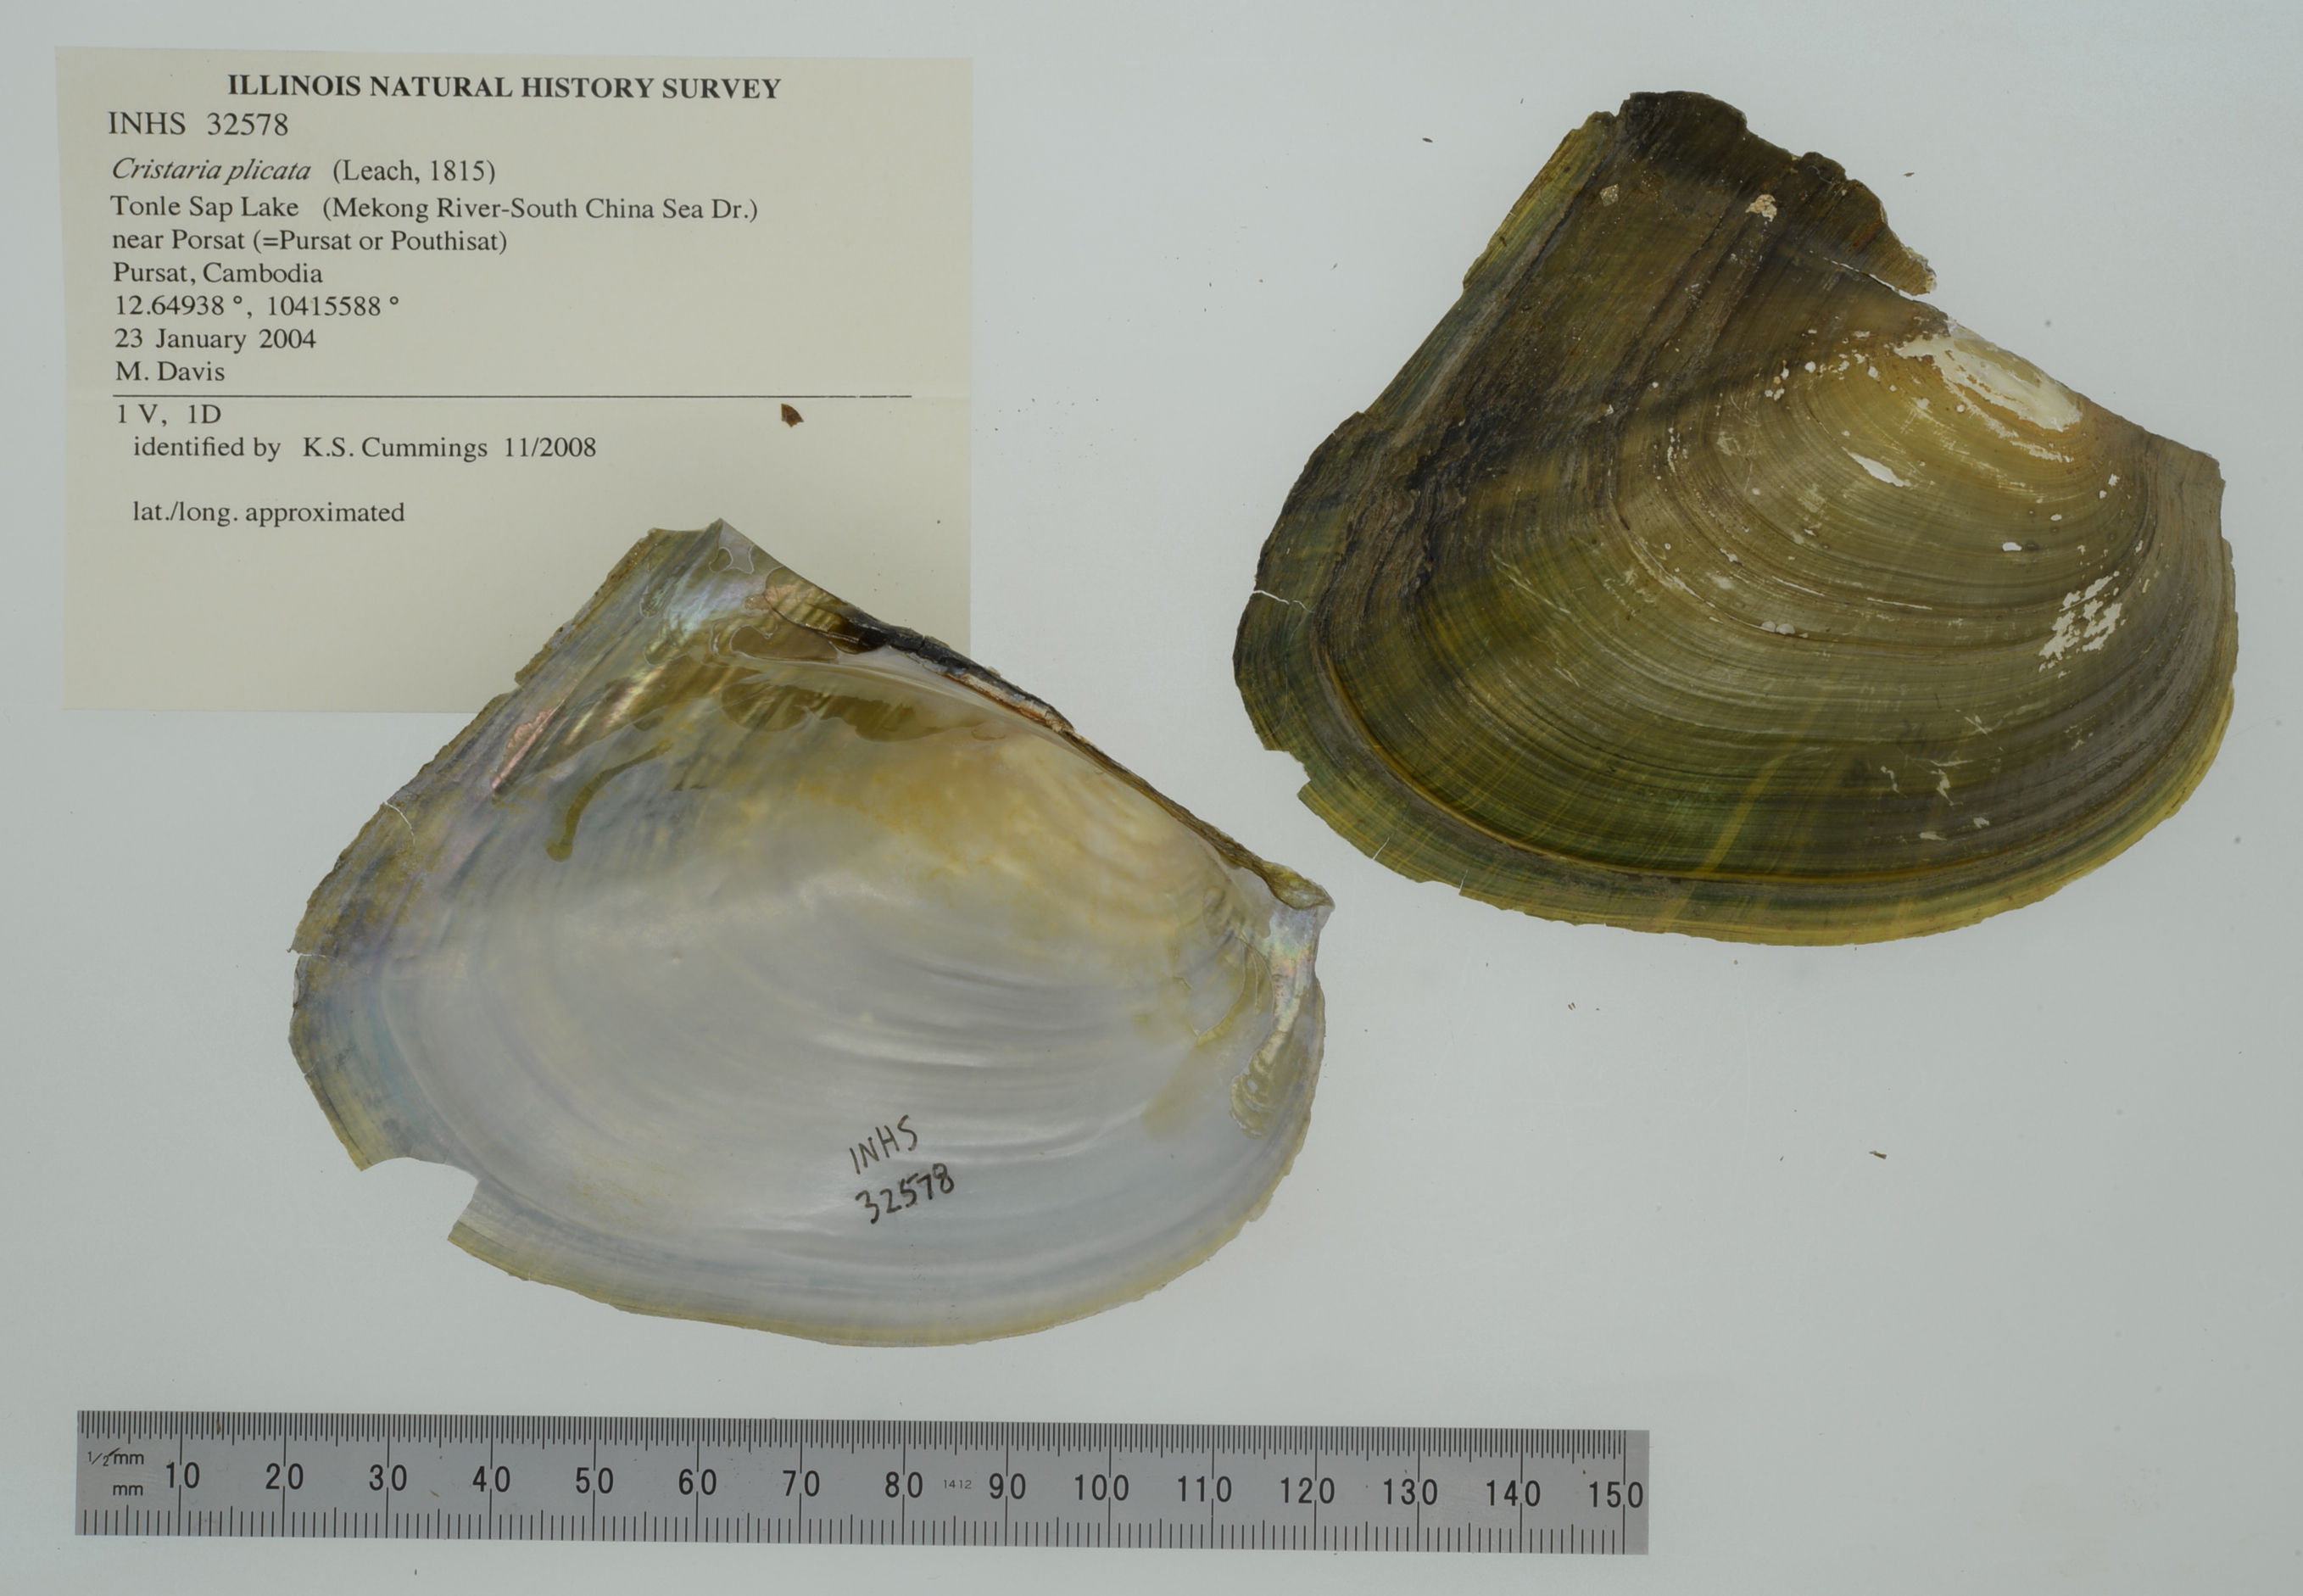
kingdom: Animalia
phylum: Mollusca
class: Bivalvia
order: Unionida
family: Unionidae
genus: Cristaria
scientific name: Cristaria bellua
